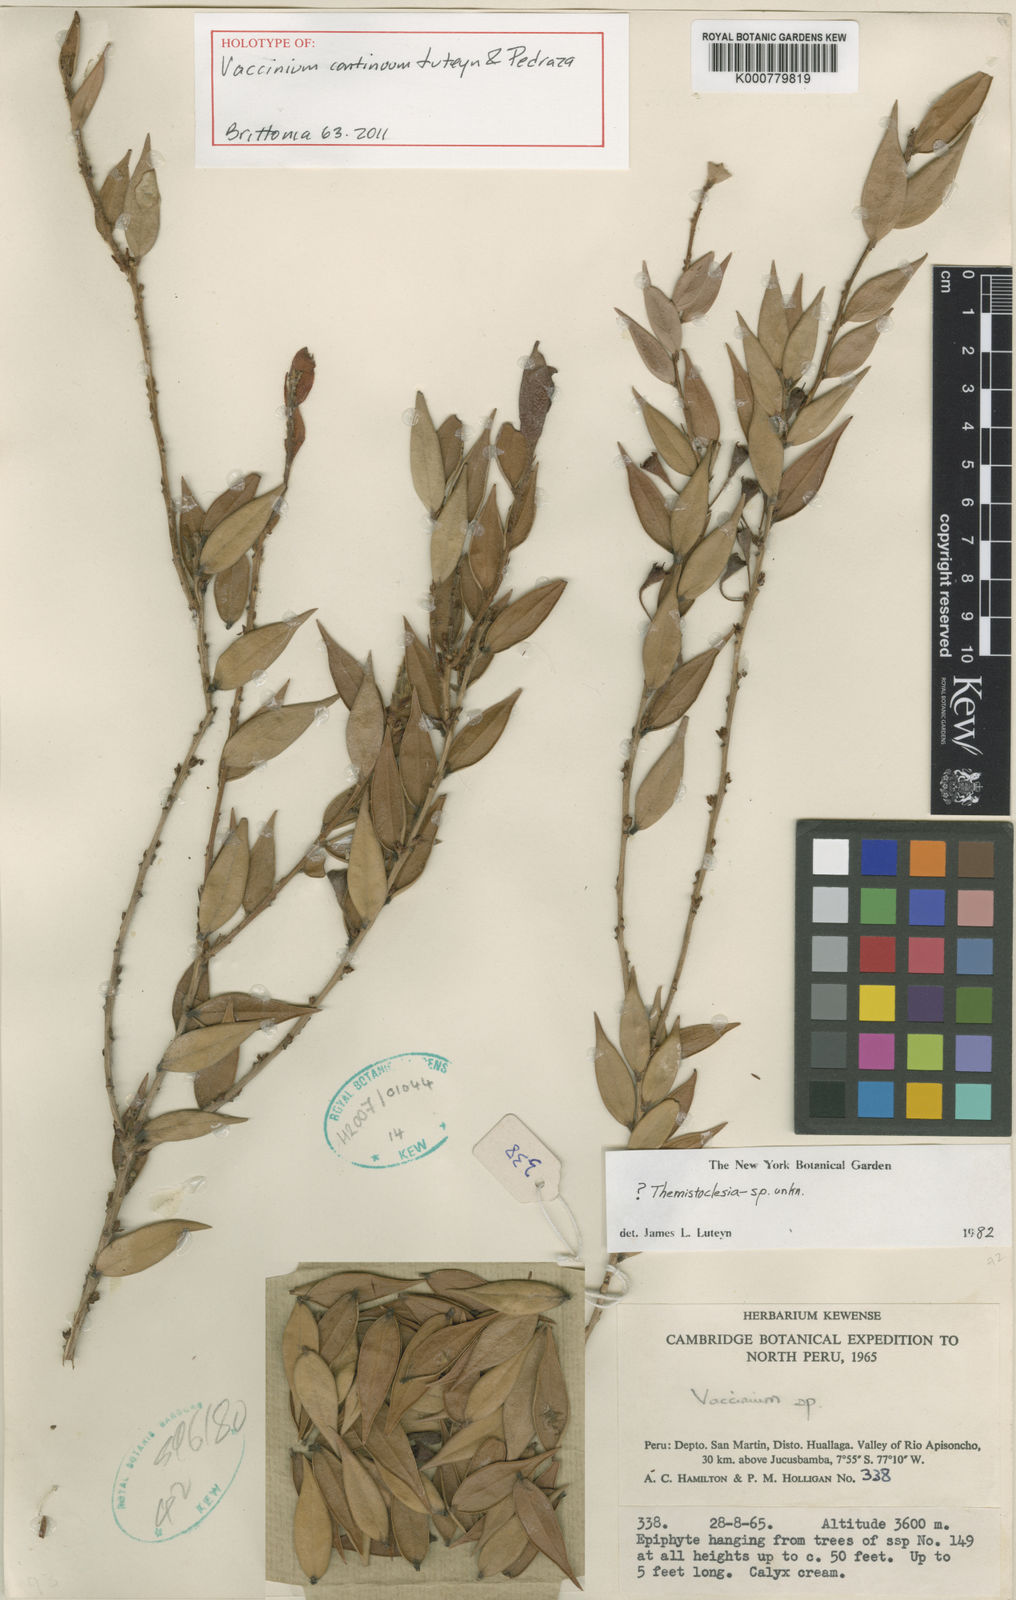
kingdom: Plantae
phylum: Tracheophyta
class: Magnoliopsida
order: Ericales
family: Ericaceae
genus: Daboecia
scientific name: Daboecia cantabrica
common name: St. dabeoc's-heath
